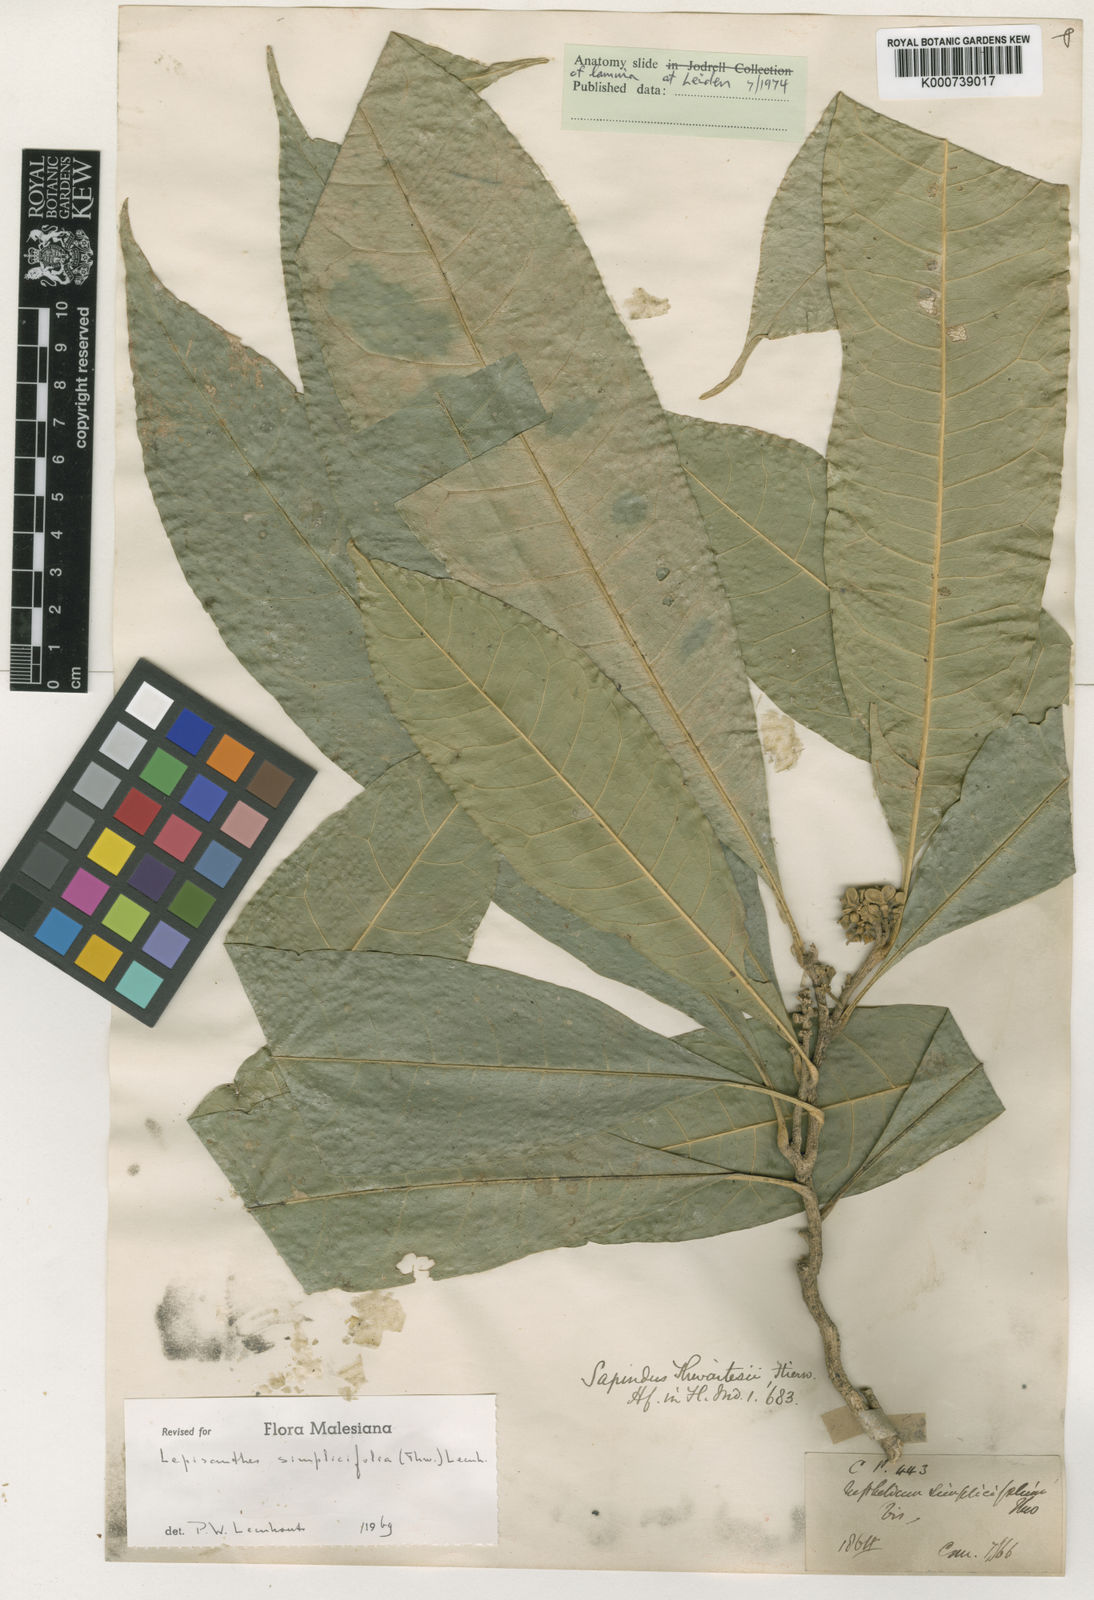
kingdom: Plantae
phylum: Tracheophyta
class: Magnoliopsida
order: Sapindales
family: Sapindaceae
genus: Lepisanthes
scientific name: Lepisanthes simplicifolia
